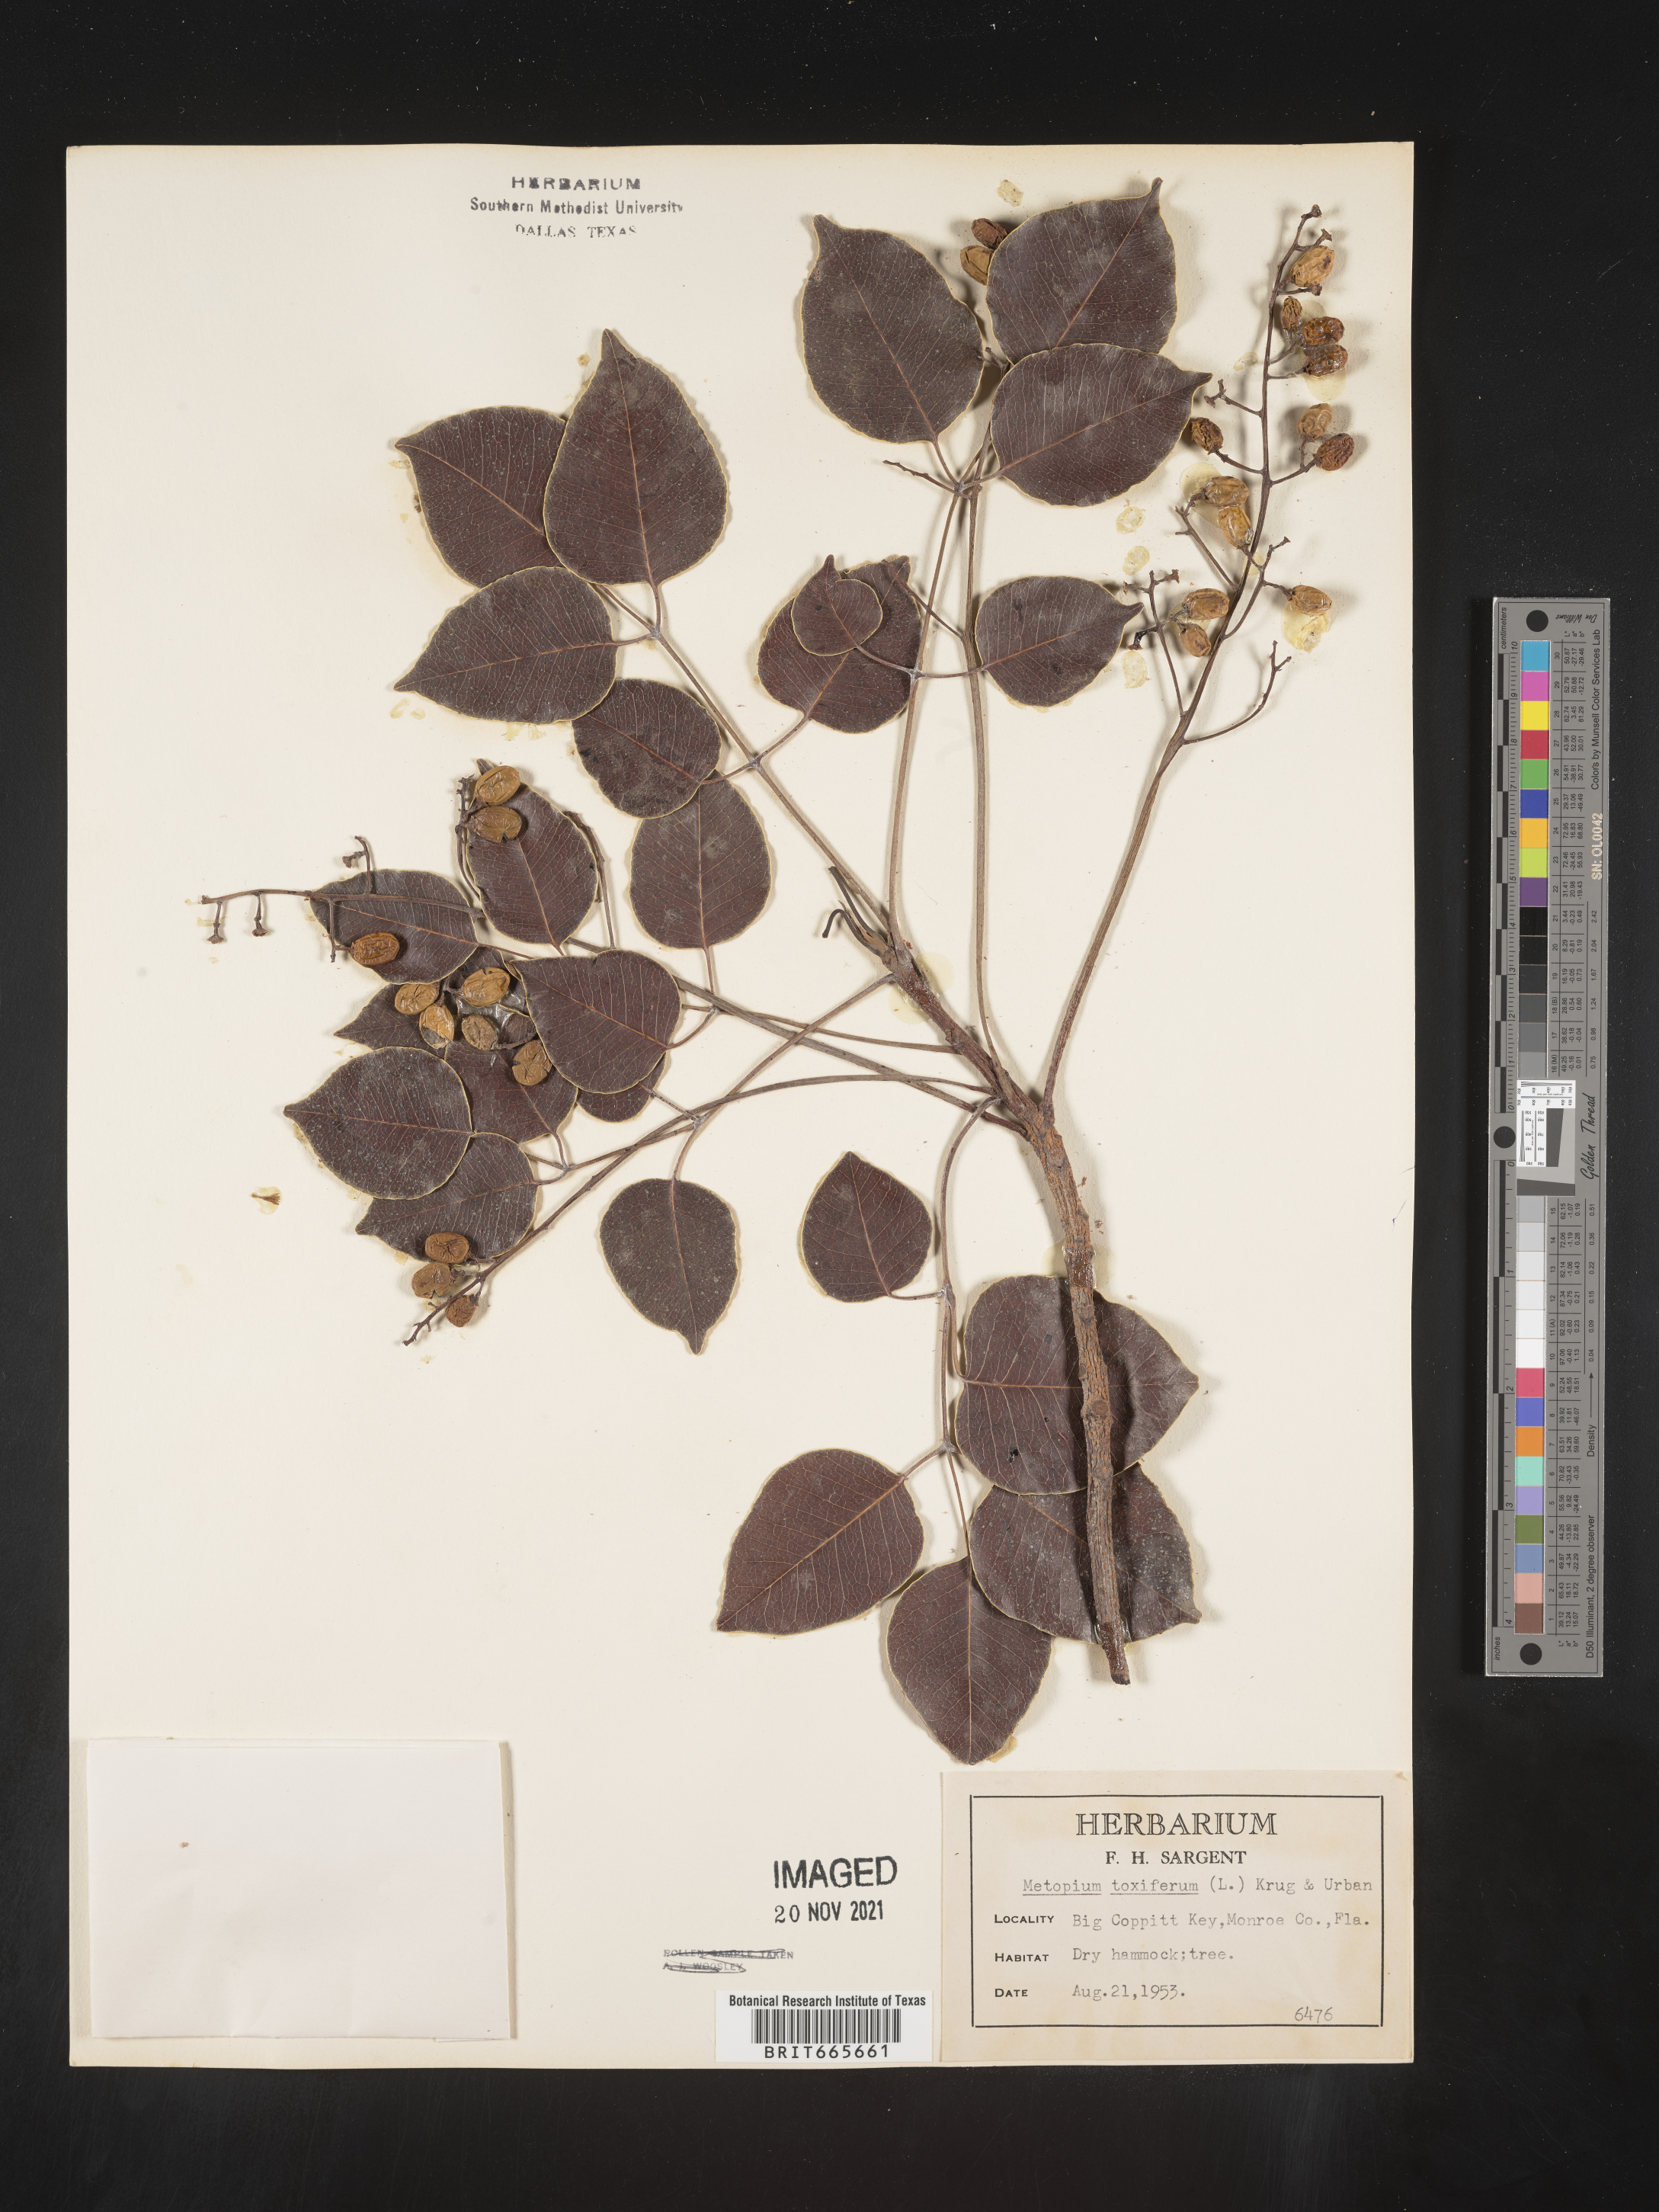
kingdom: Plantae
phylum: Tracheophyta
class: Magnoliopsida
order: Sapindales
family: Anacardiaceae
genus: Metopium
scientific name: Metopium
